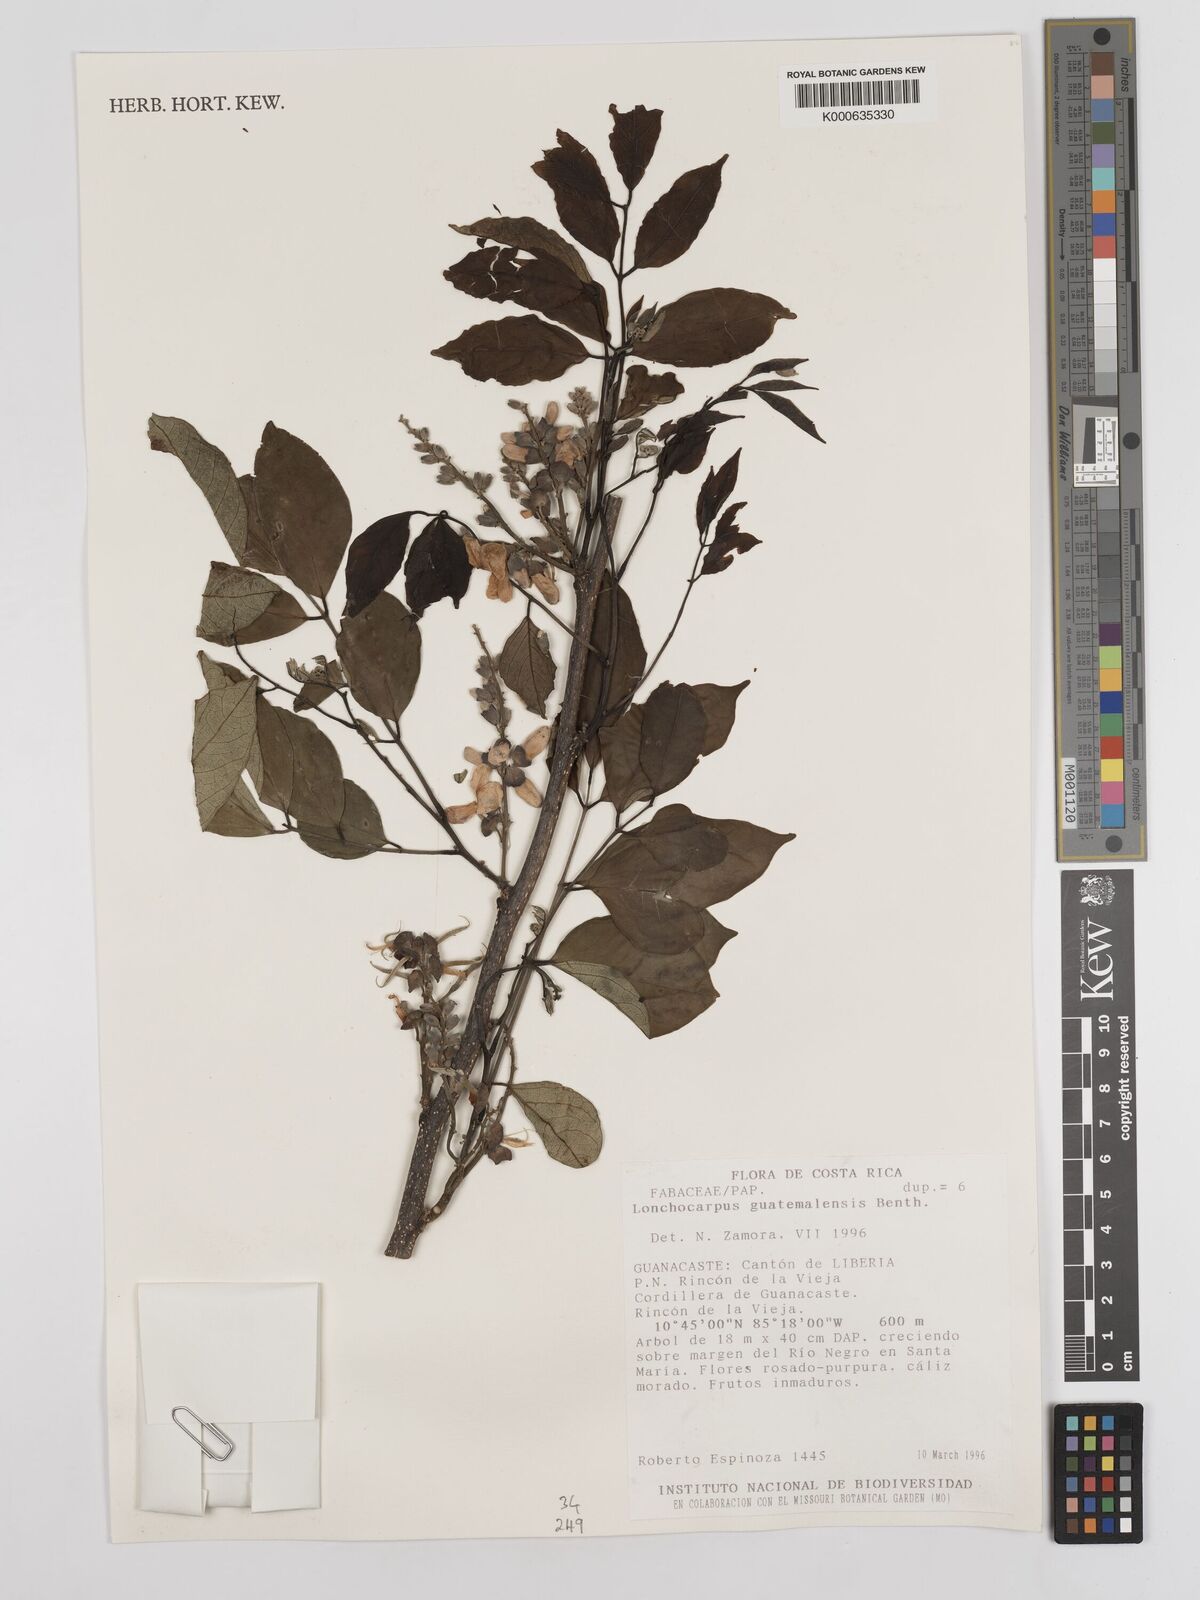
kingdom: Plantae
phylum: Tracheophyta
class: Magnoliopsida
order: Fabales
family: Fabaceae
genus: Lonchocarpus
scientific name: Lonchocarpus guatemalensis
